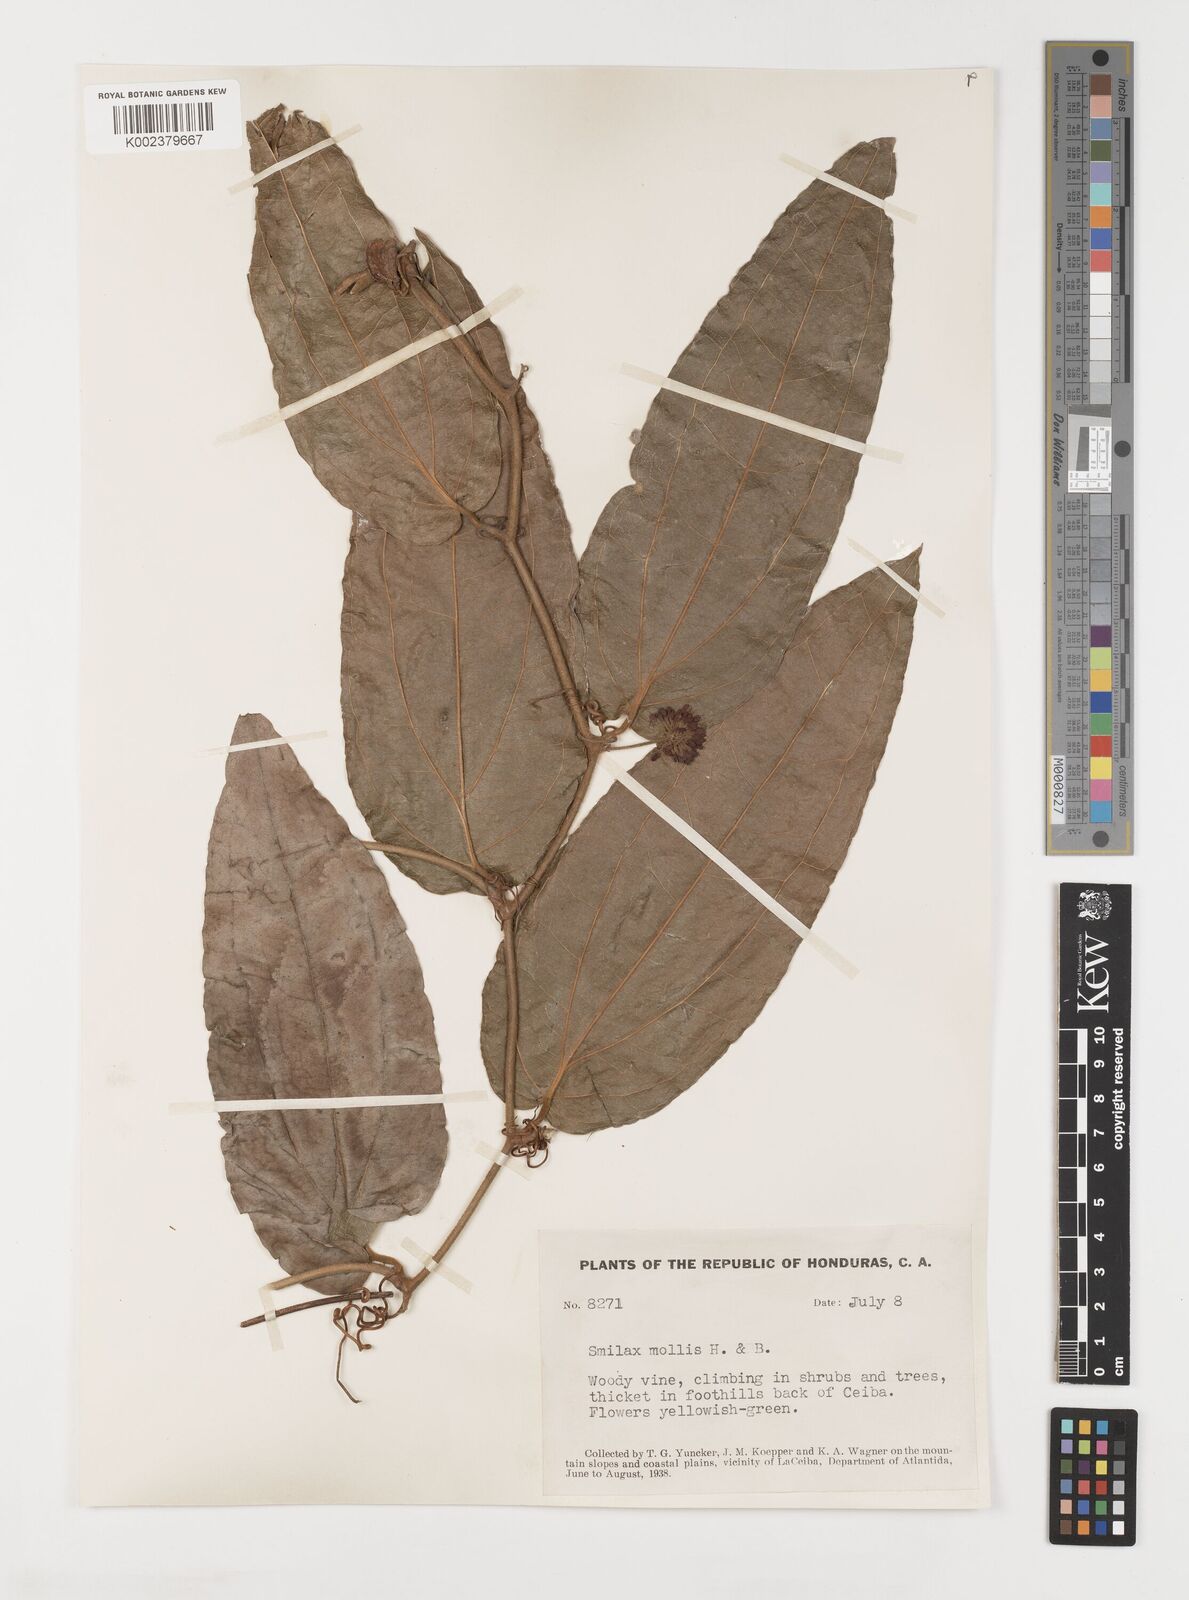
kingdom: Plantae
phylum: Tracheophyta
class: Liliopsida
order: Liliales
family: Smilacaceae
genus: Smilax
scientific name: Smilax mollis
